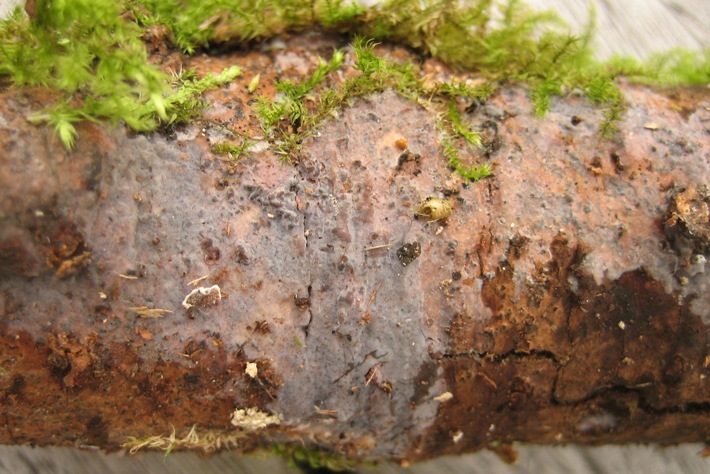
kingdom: Fungi
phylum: Basidiomycota
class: Agaricomycetes
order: Sebacinales
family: Sebacinaceae
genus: Sebacina
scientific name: Sebacina grisea
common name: blågrå bævrehinde
